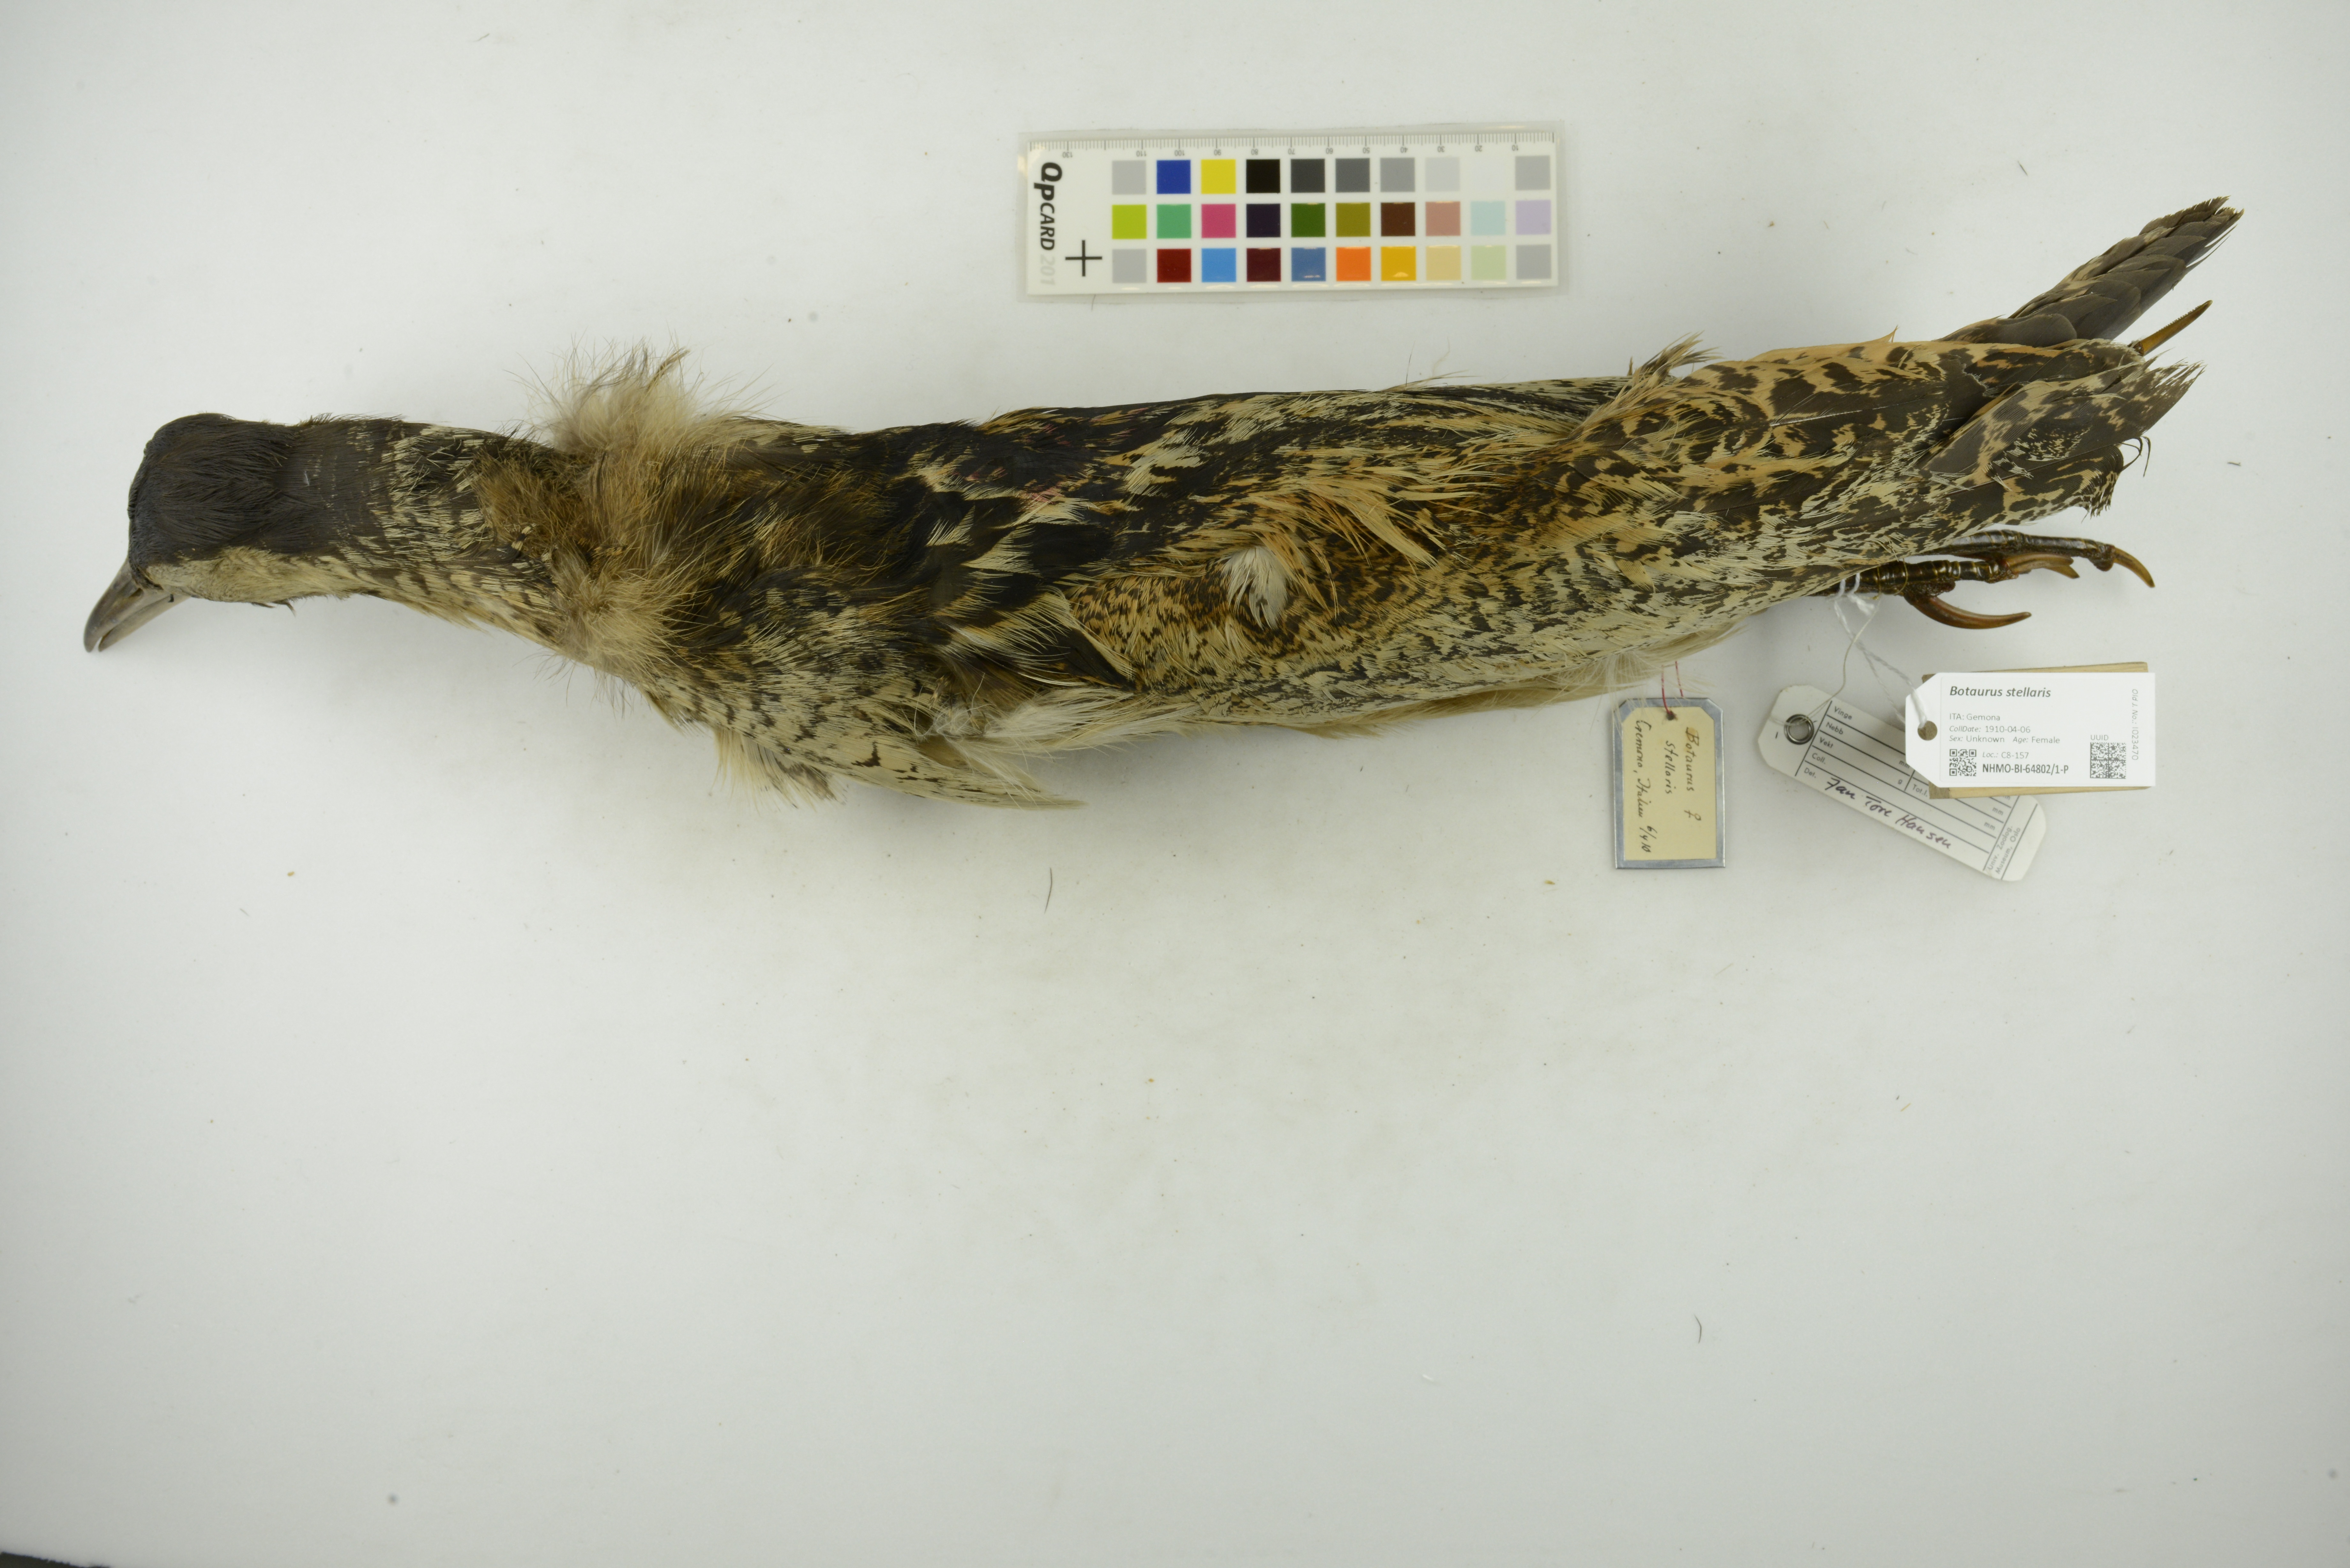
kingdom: Animalia
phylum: Chordata
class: Aves
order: Pelecaniformes
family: Ardeidae
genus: Botaurus
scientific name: Botaurus stellaris
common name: Eurasian bittern
